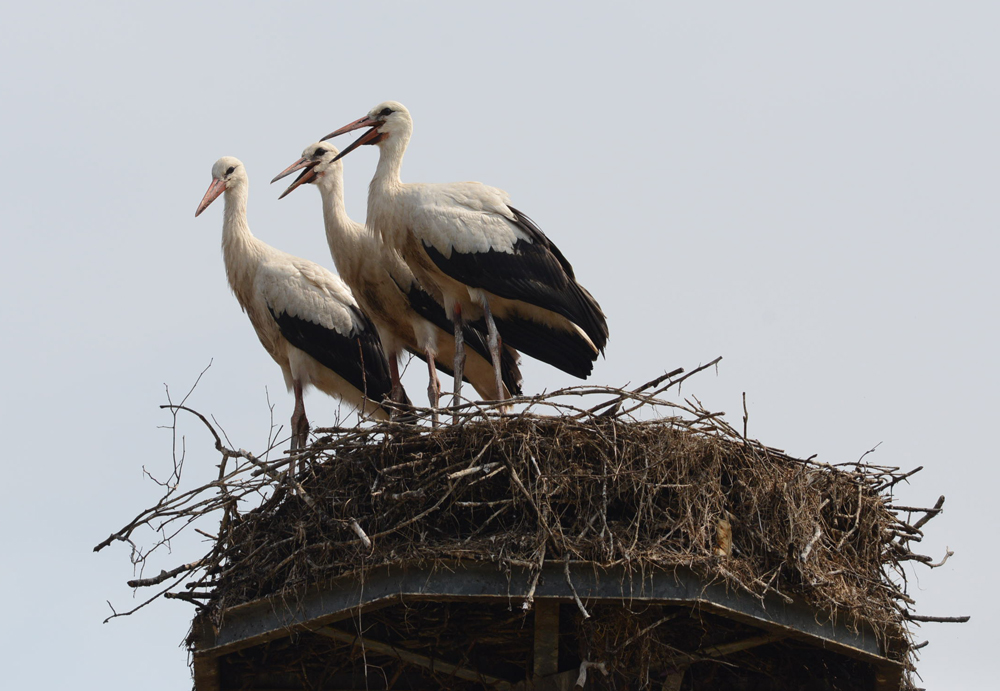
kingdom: Animalia
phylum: Chordata
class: Aves
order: Ciconiiformes
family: Ciconiidae
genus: Ciconia
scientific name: Ciconia ciconia
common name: White stork
